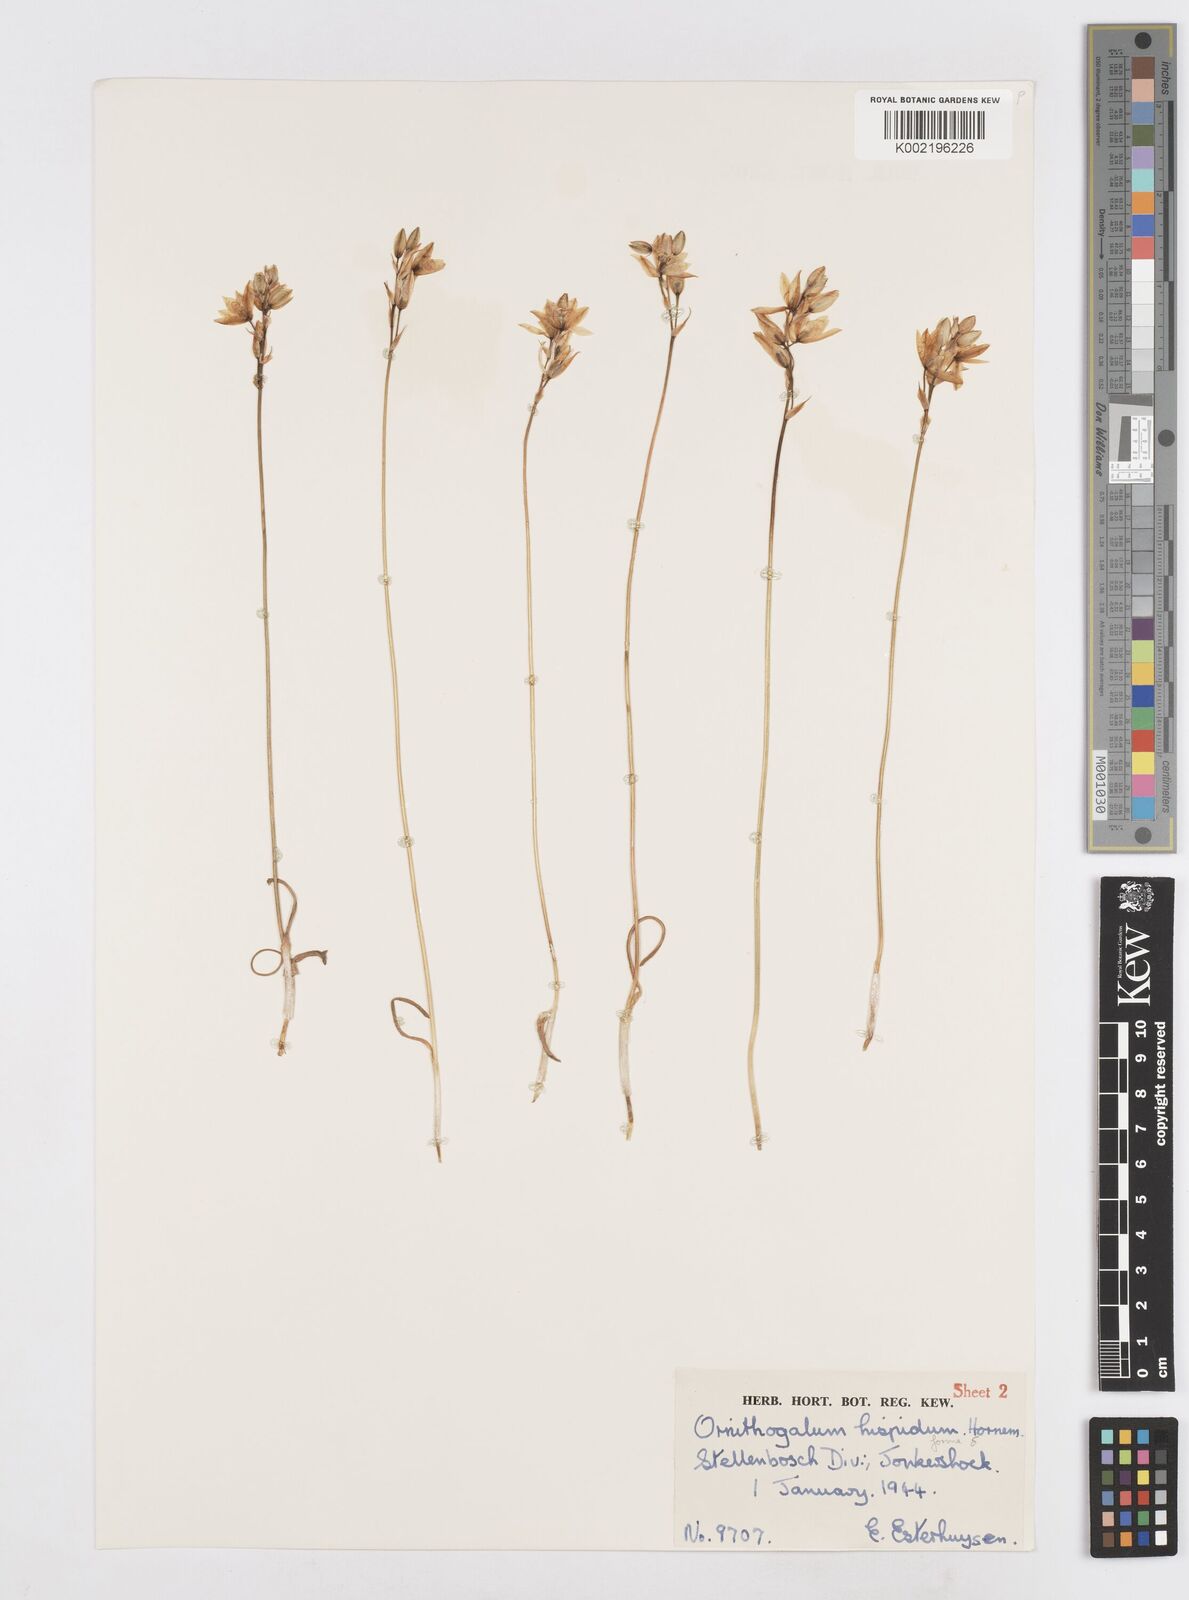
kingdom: Plantae
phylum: Tracheophyta
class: Liliopsida
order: Asparagales
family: Asparagaceae
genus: Ornithogalum
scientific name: Ornithogalum hispidum
